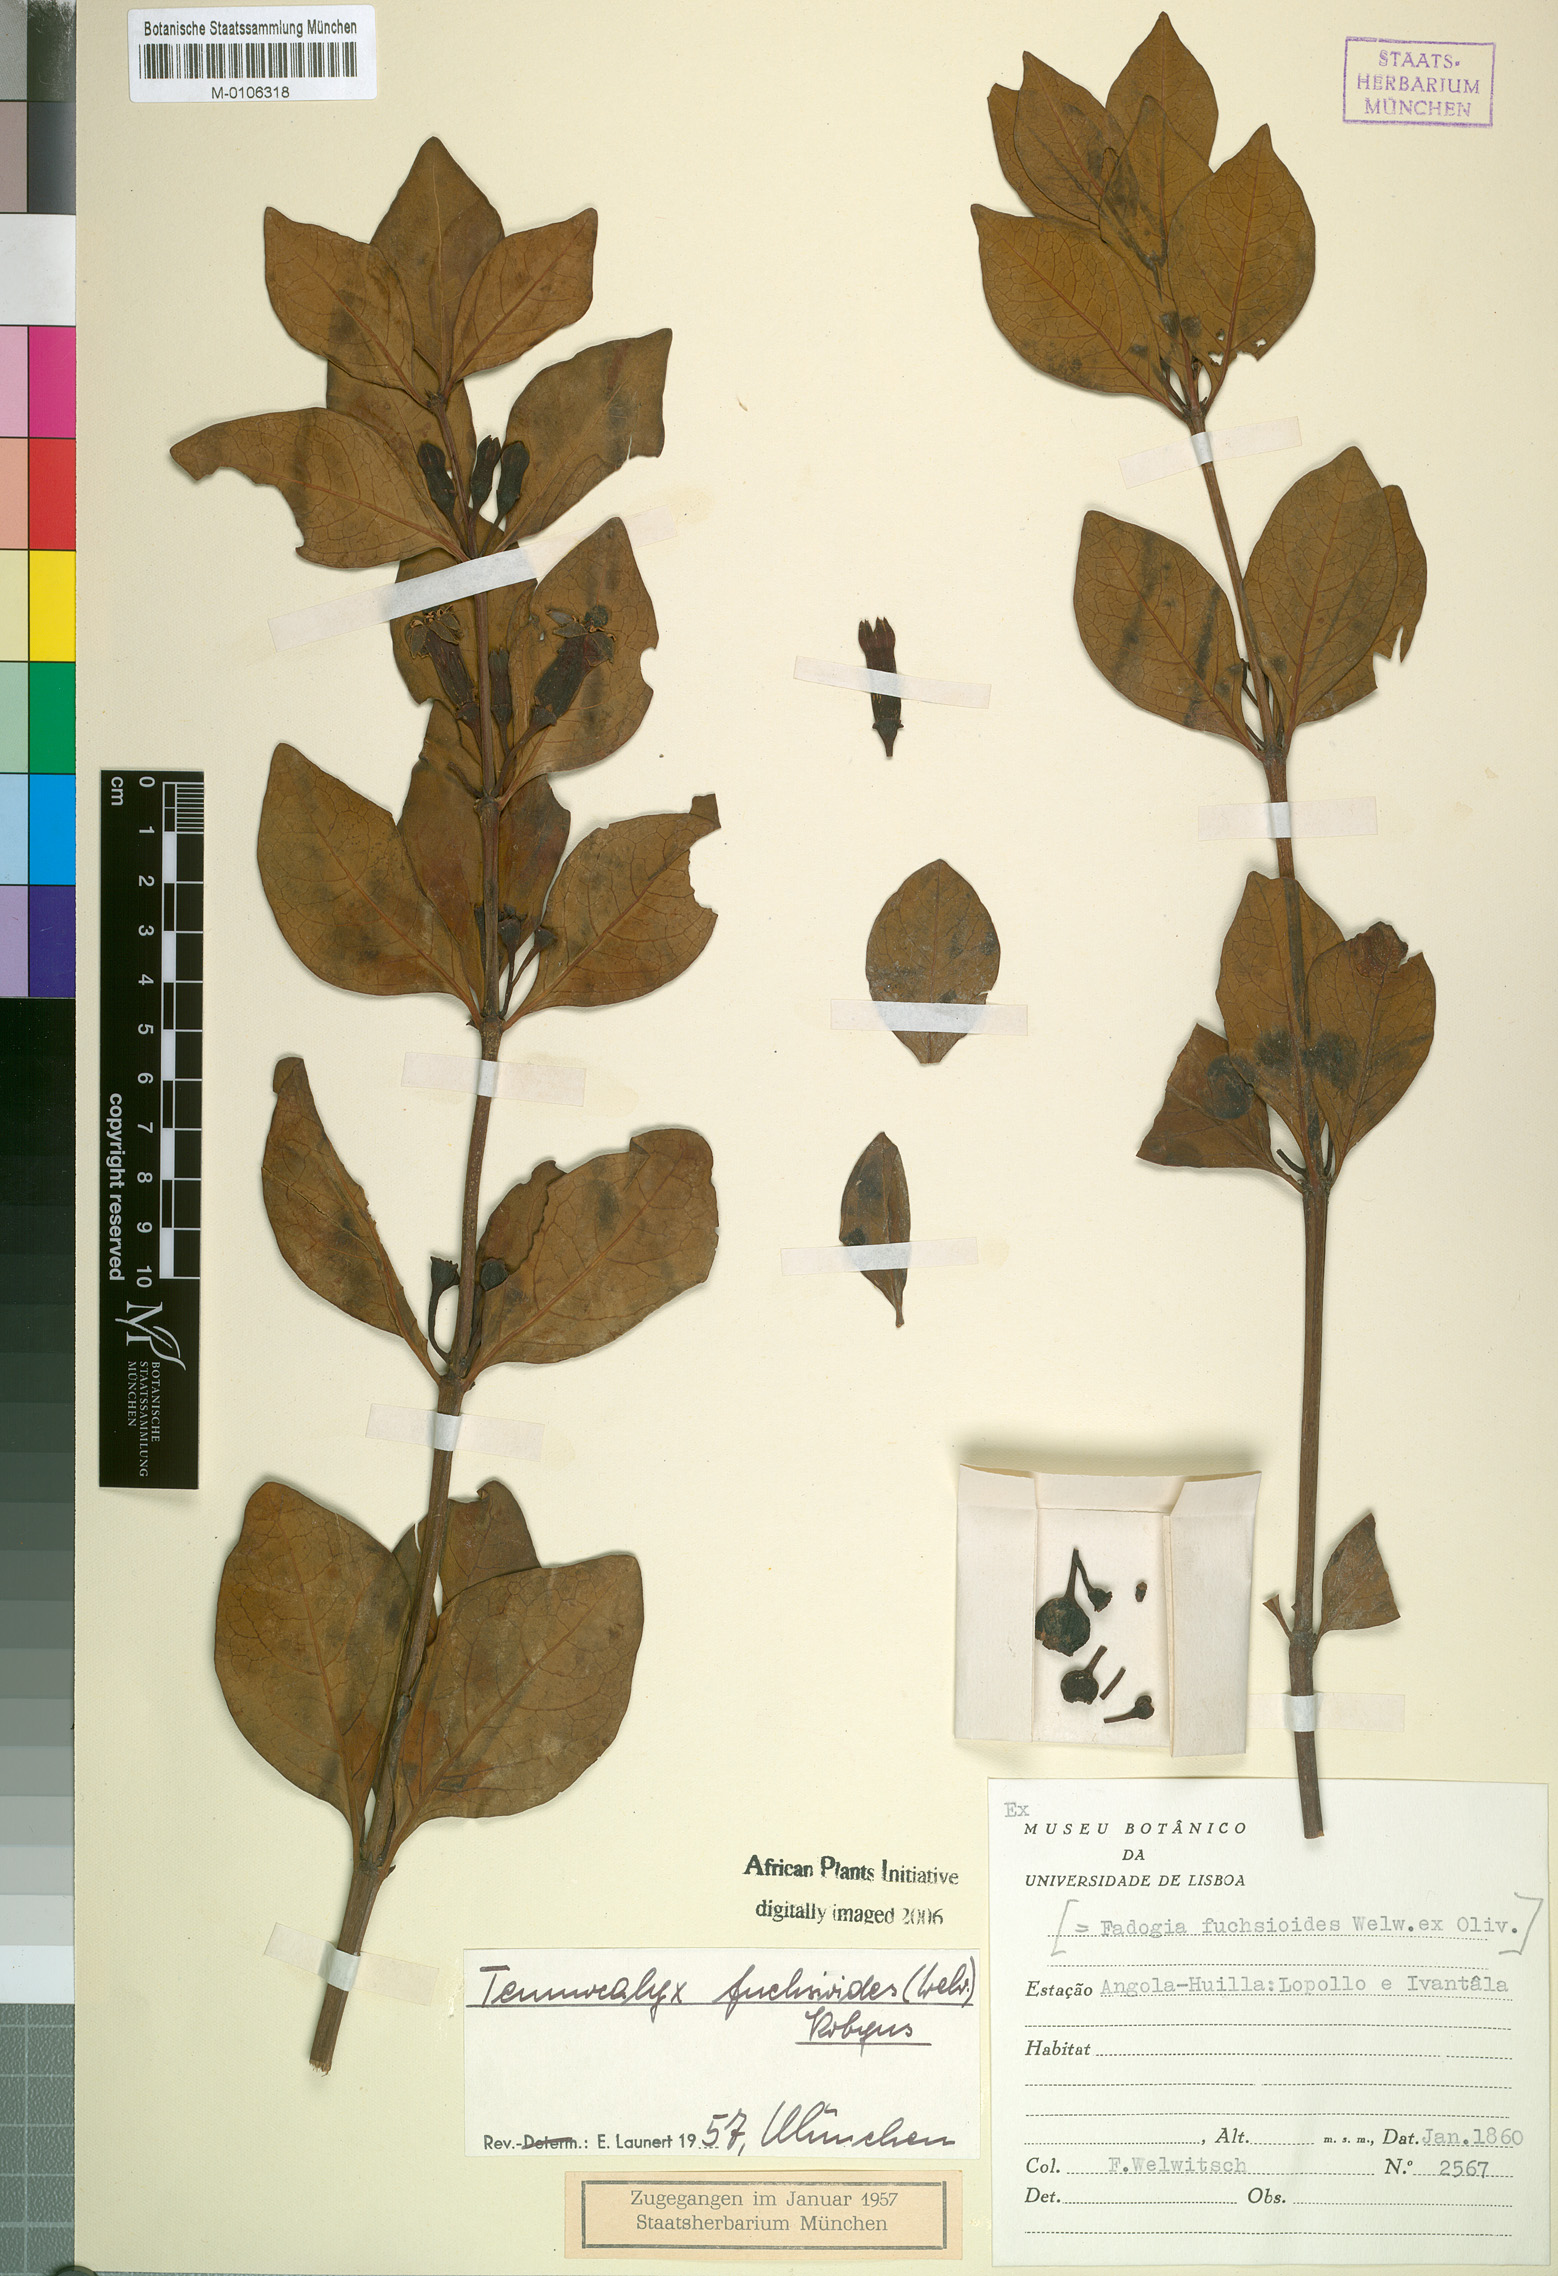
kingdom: Plantae
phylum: Tracheophyta
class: Magnoliopsida
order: Gentianales
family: Rubiaceae
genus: Fadogia
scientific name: Fadogia fuchsioides
